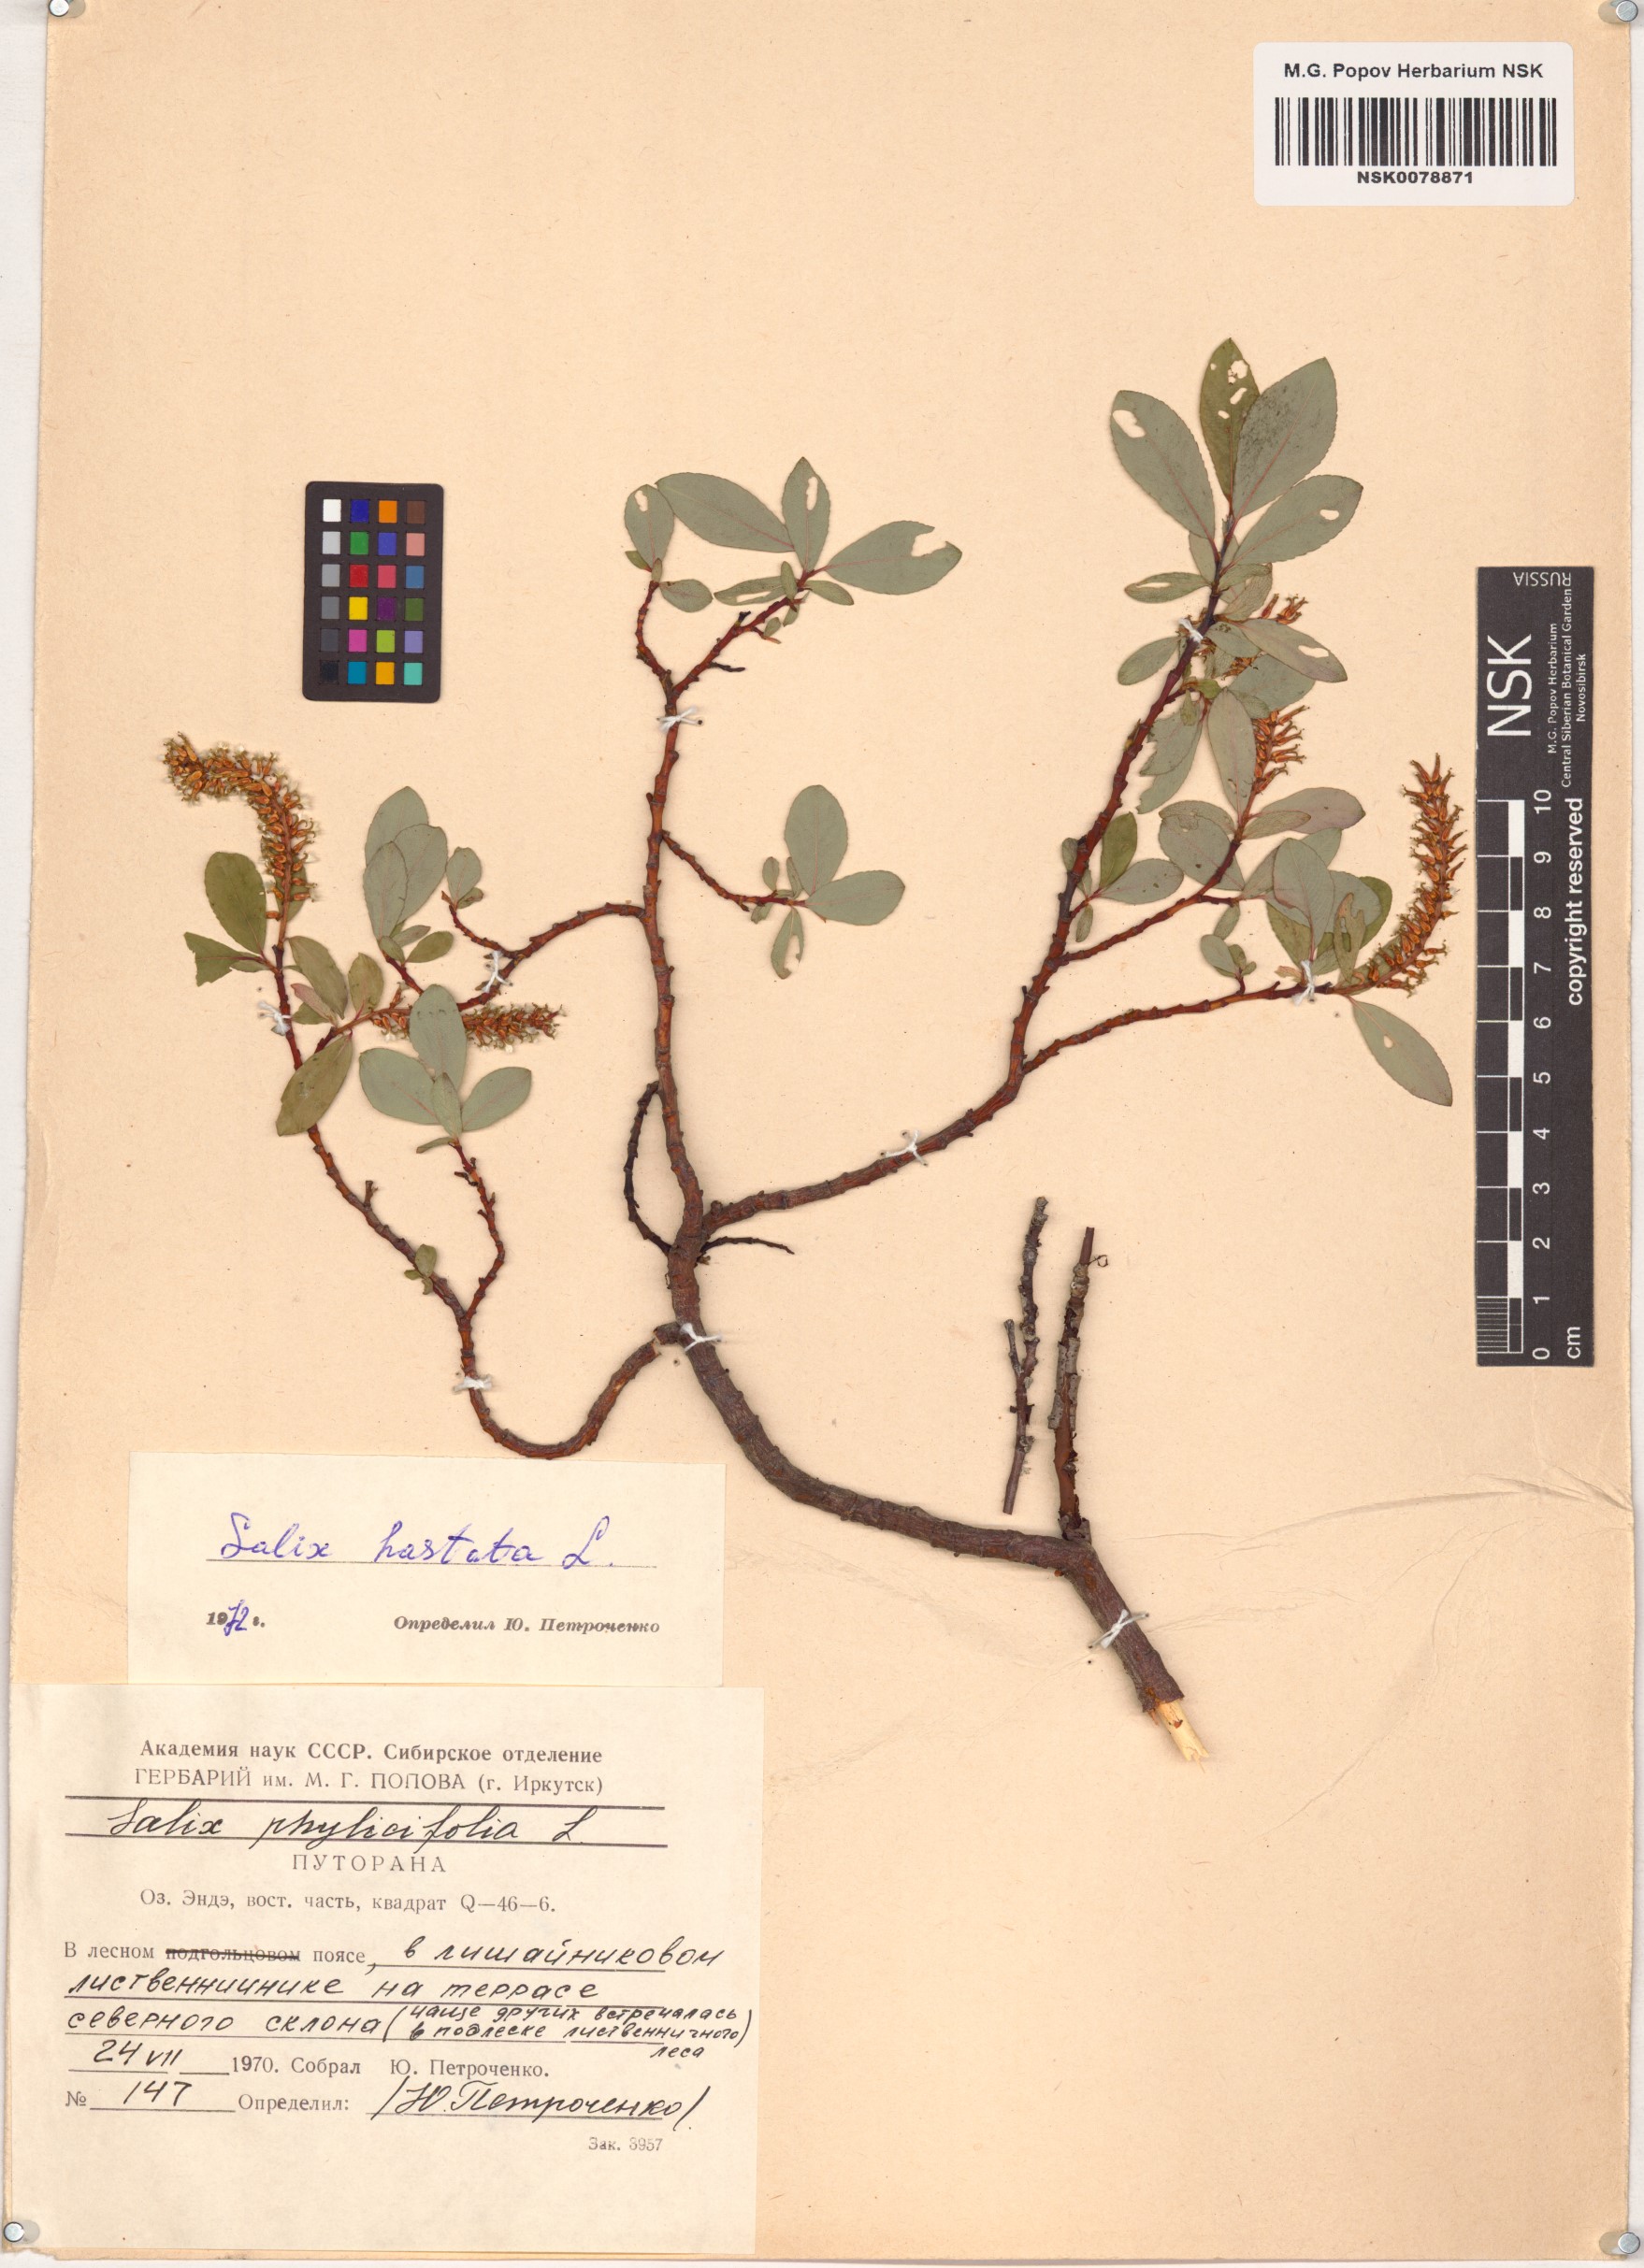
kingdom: Plantae
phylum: Tracheophyta
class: Magnoliopsida
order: Malpighiales
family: Salicaceae
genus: Salix
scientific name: Salix hastata
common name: Halberd willow
